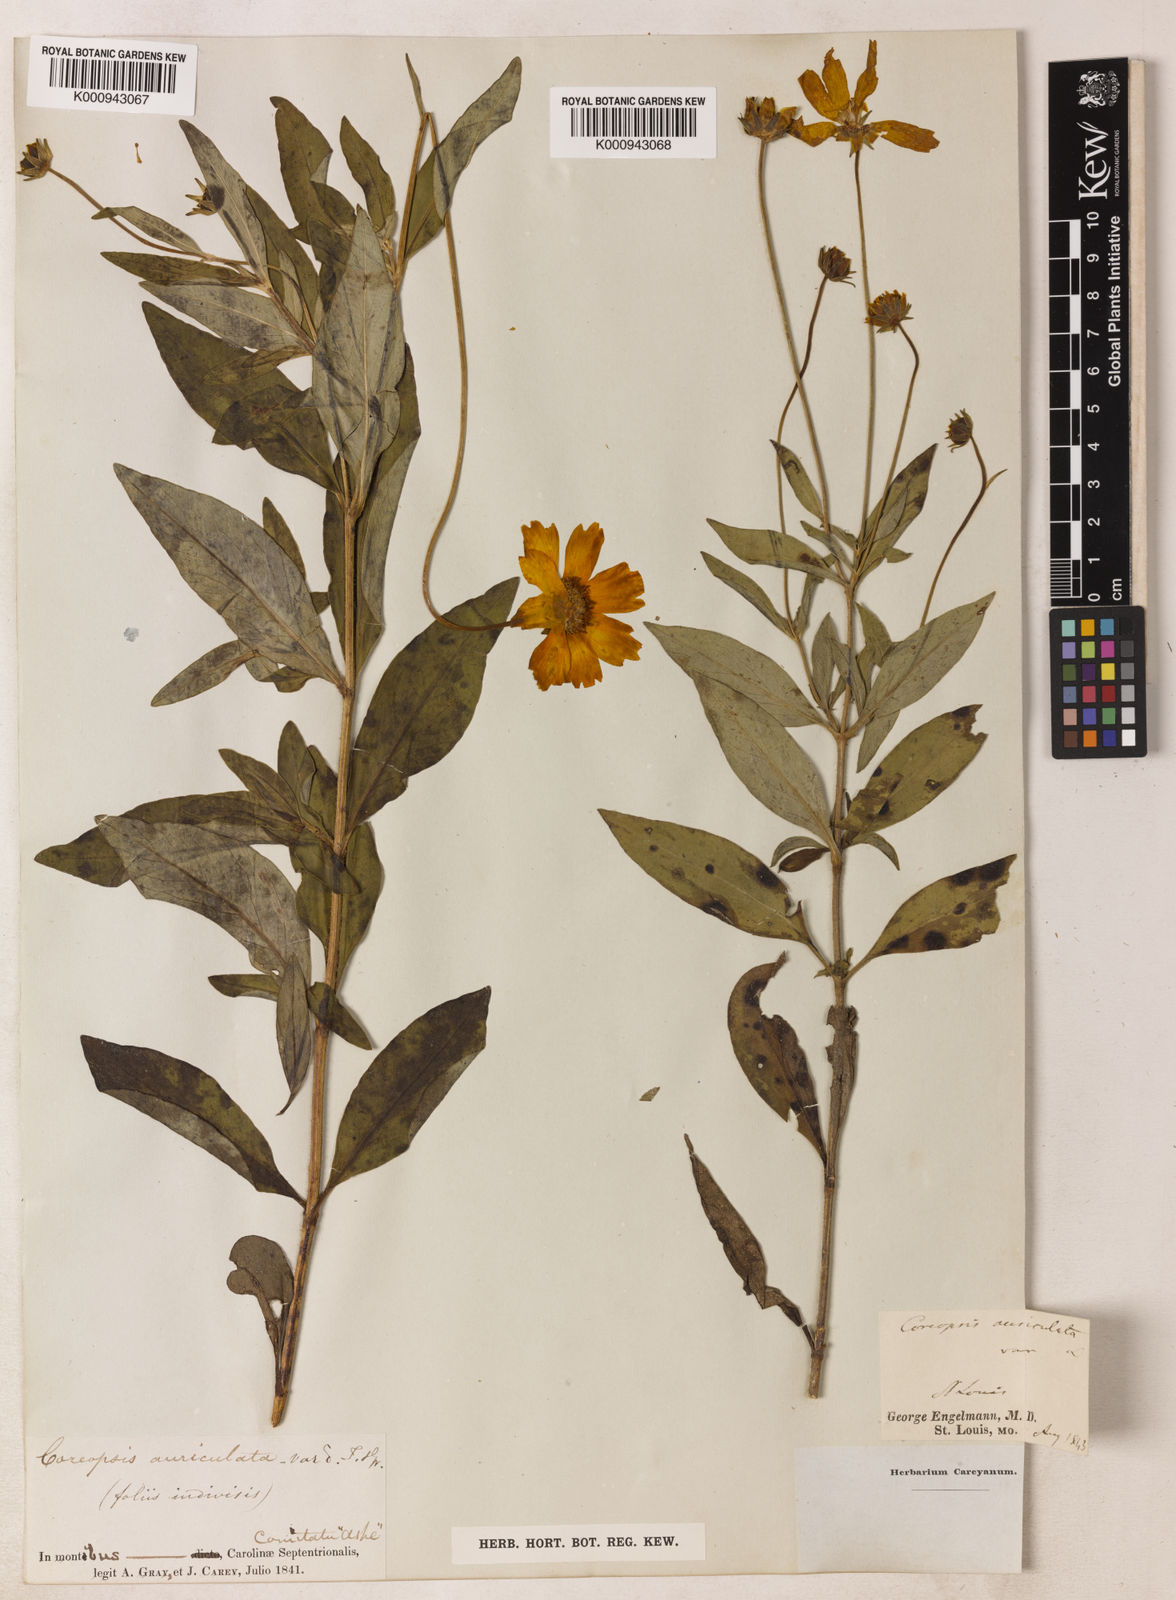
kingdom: Plantae
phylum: Tracheophyta
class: Magnoliopsida
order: Asterales
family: Asteraceae
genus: Coreopsis
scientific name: Coreopsis pubescens
